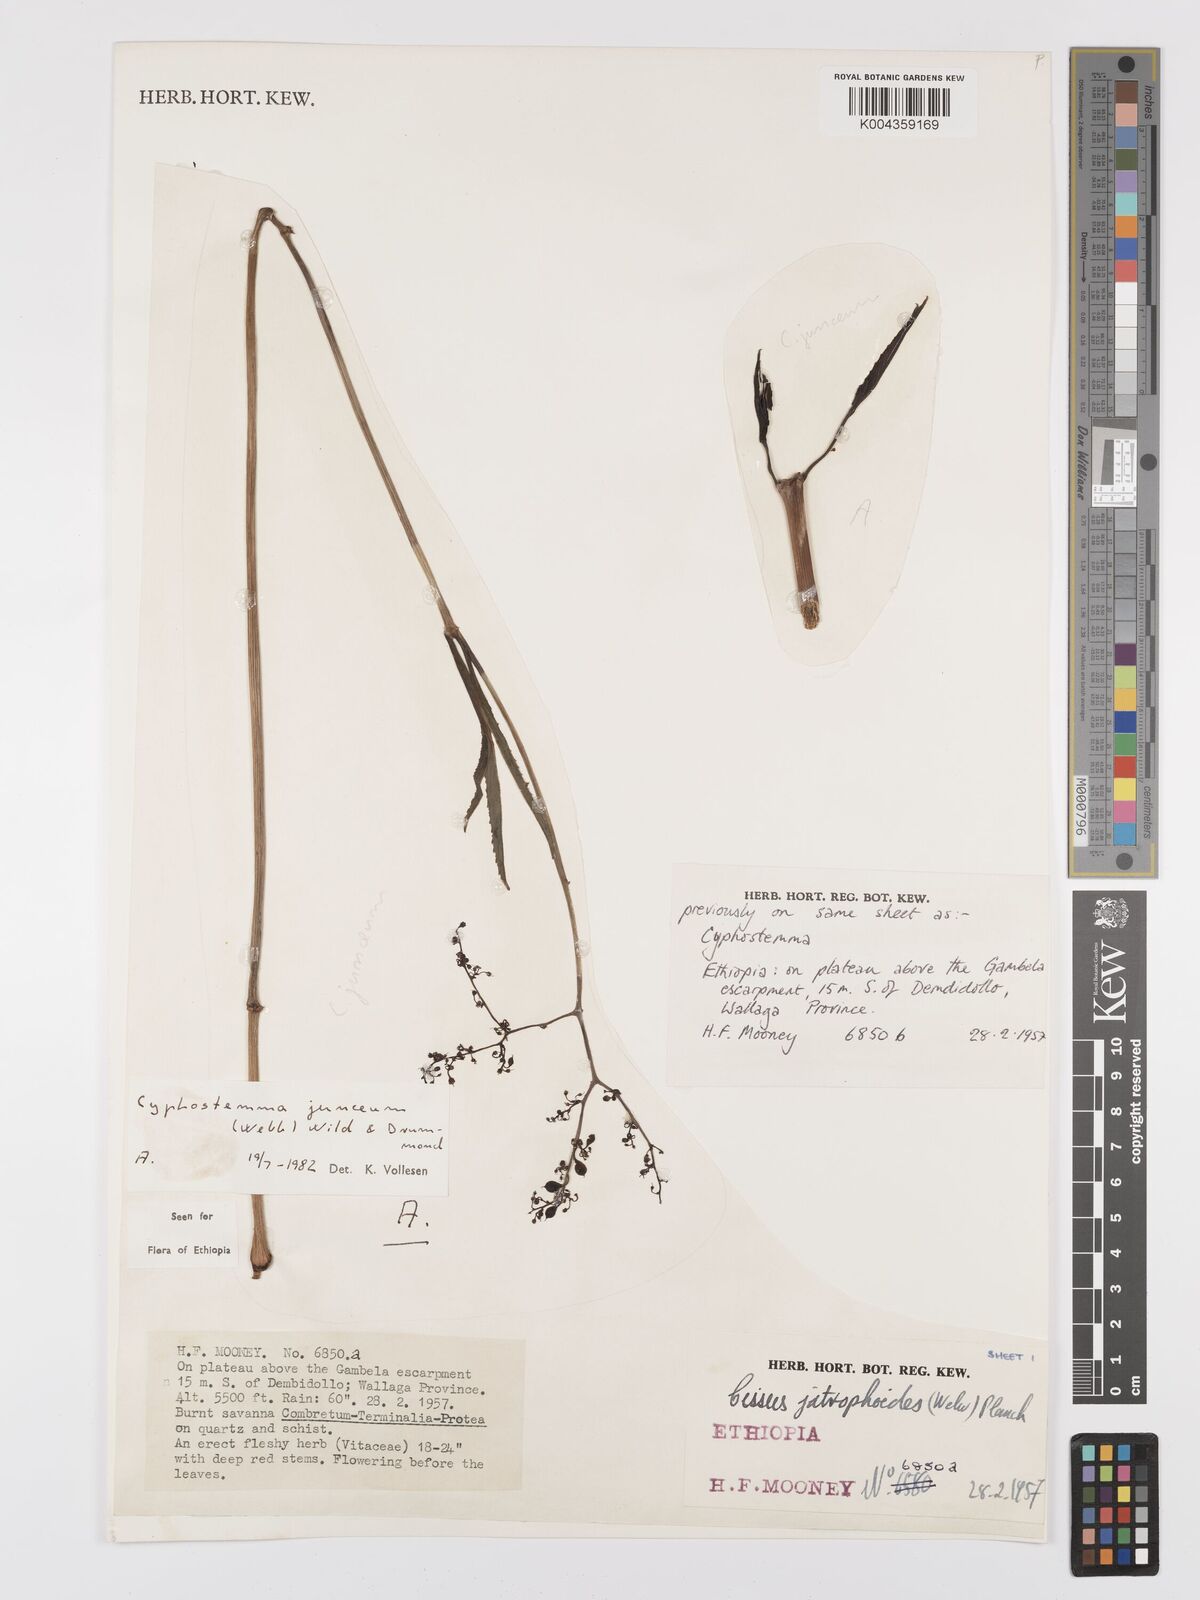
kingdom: Plantae
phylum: Tracheophyta
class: Magnoliopsida
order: Vitales
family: Vitaceae
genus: Cyphostemma
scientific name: Cyphostemma junceum
